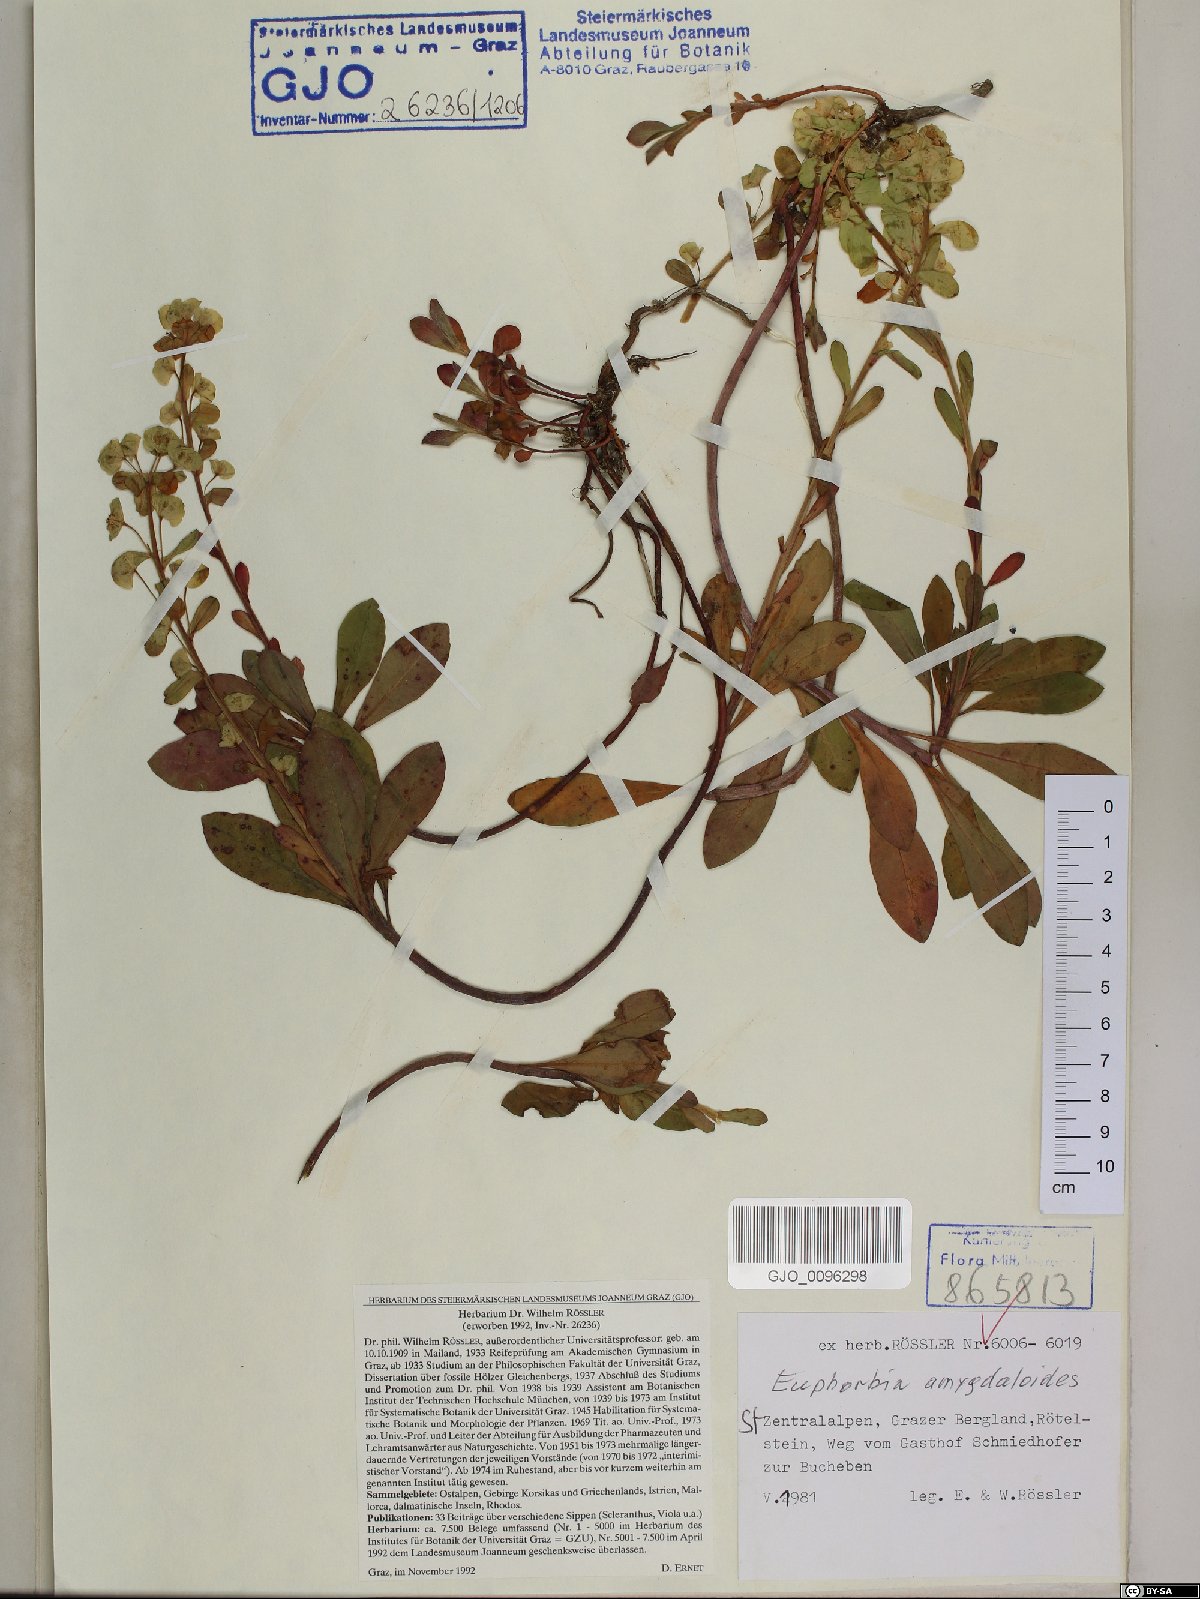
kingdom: Plantae
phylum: Tracheophyta
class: Magnoliopsida
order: Malpighiales
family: Euphorbiaceae
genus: Euphorbia
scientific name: Euphorbia amygdaloides
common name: Wood spurge
